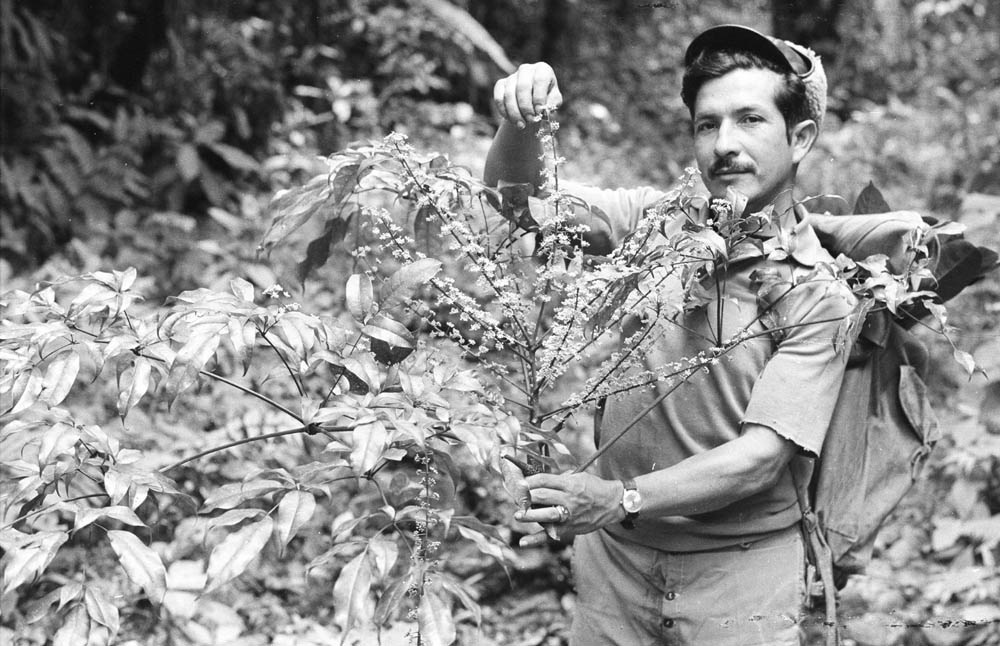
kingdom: Plantae
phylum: Tracheophyta
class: Magnoliopsida
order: Apiales
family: Araliaceae
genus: Sciodaphyllum
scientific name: Sciodaphyllum diplodactylum
